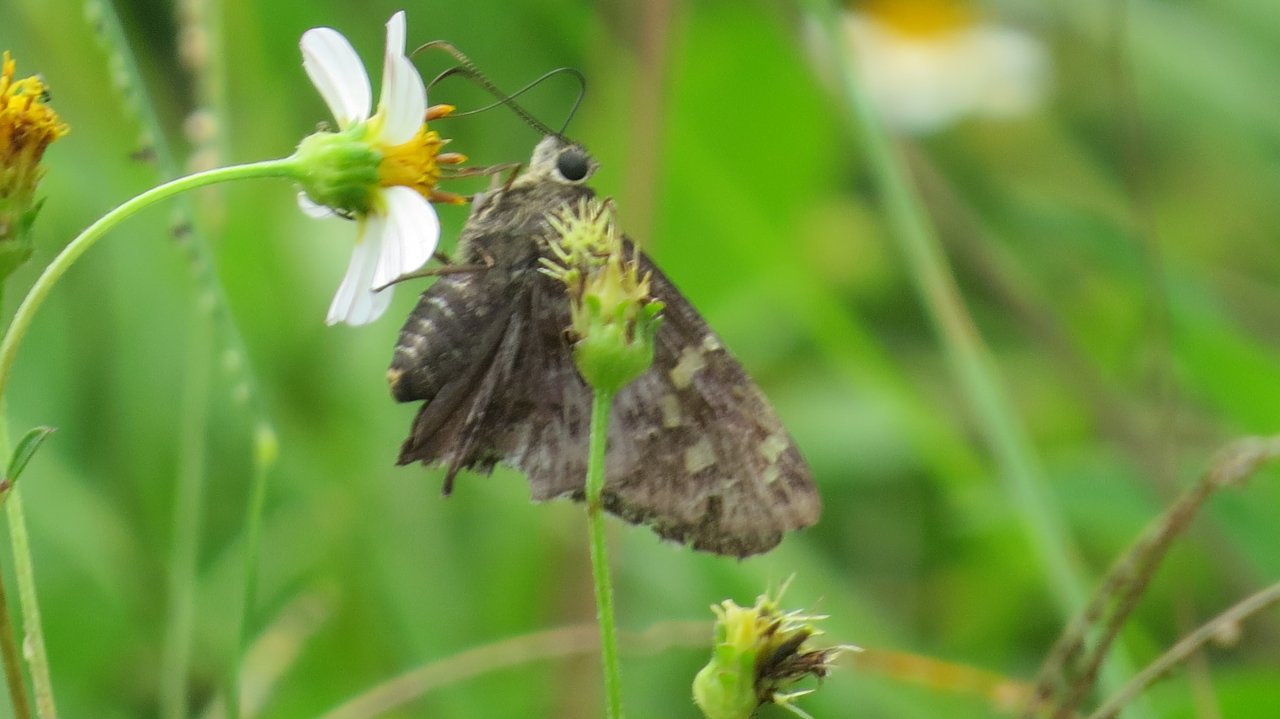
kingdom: Animalia
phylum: Arthropoda
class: Insecta
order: Lepidoptera
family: Hesperiidae
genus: Urbanus
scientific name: Urbanus dorantes
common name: Dorantes Longtail
